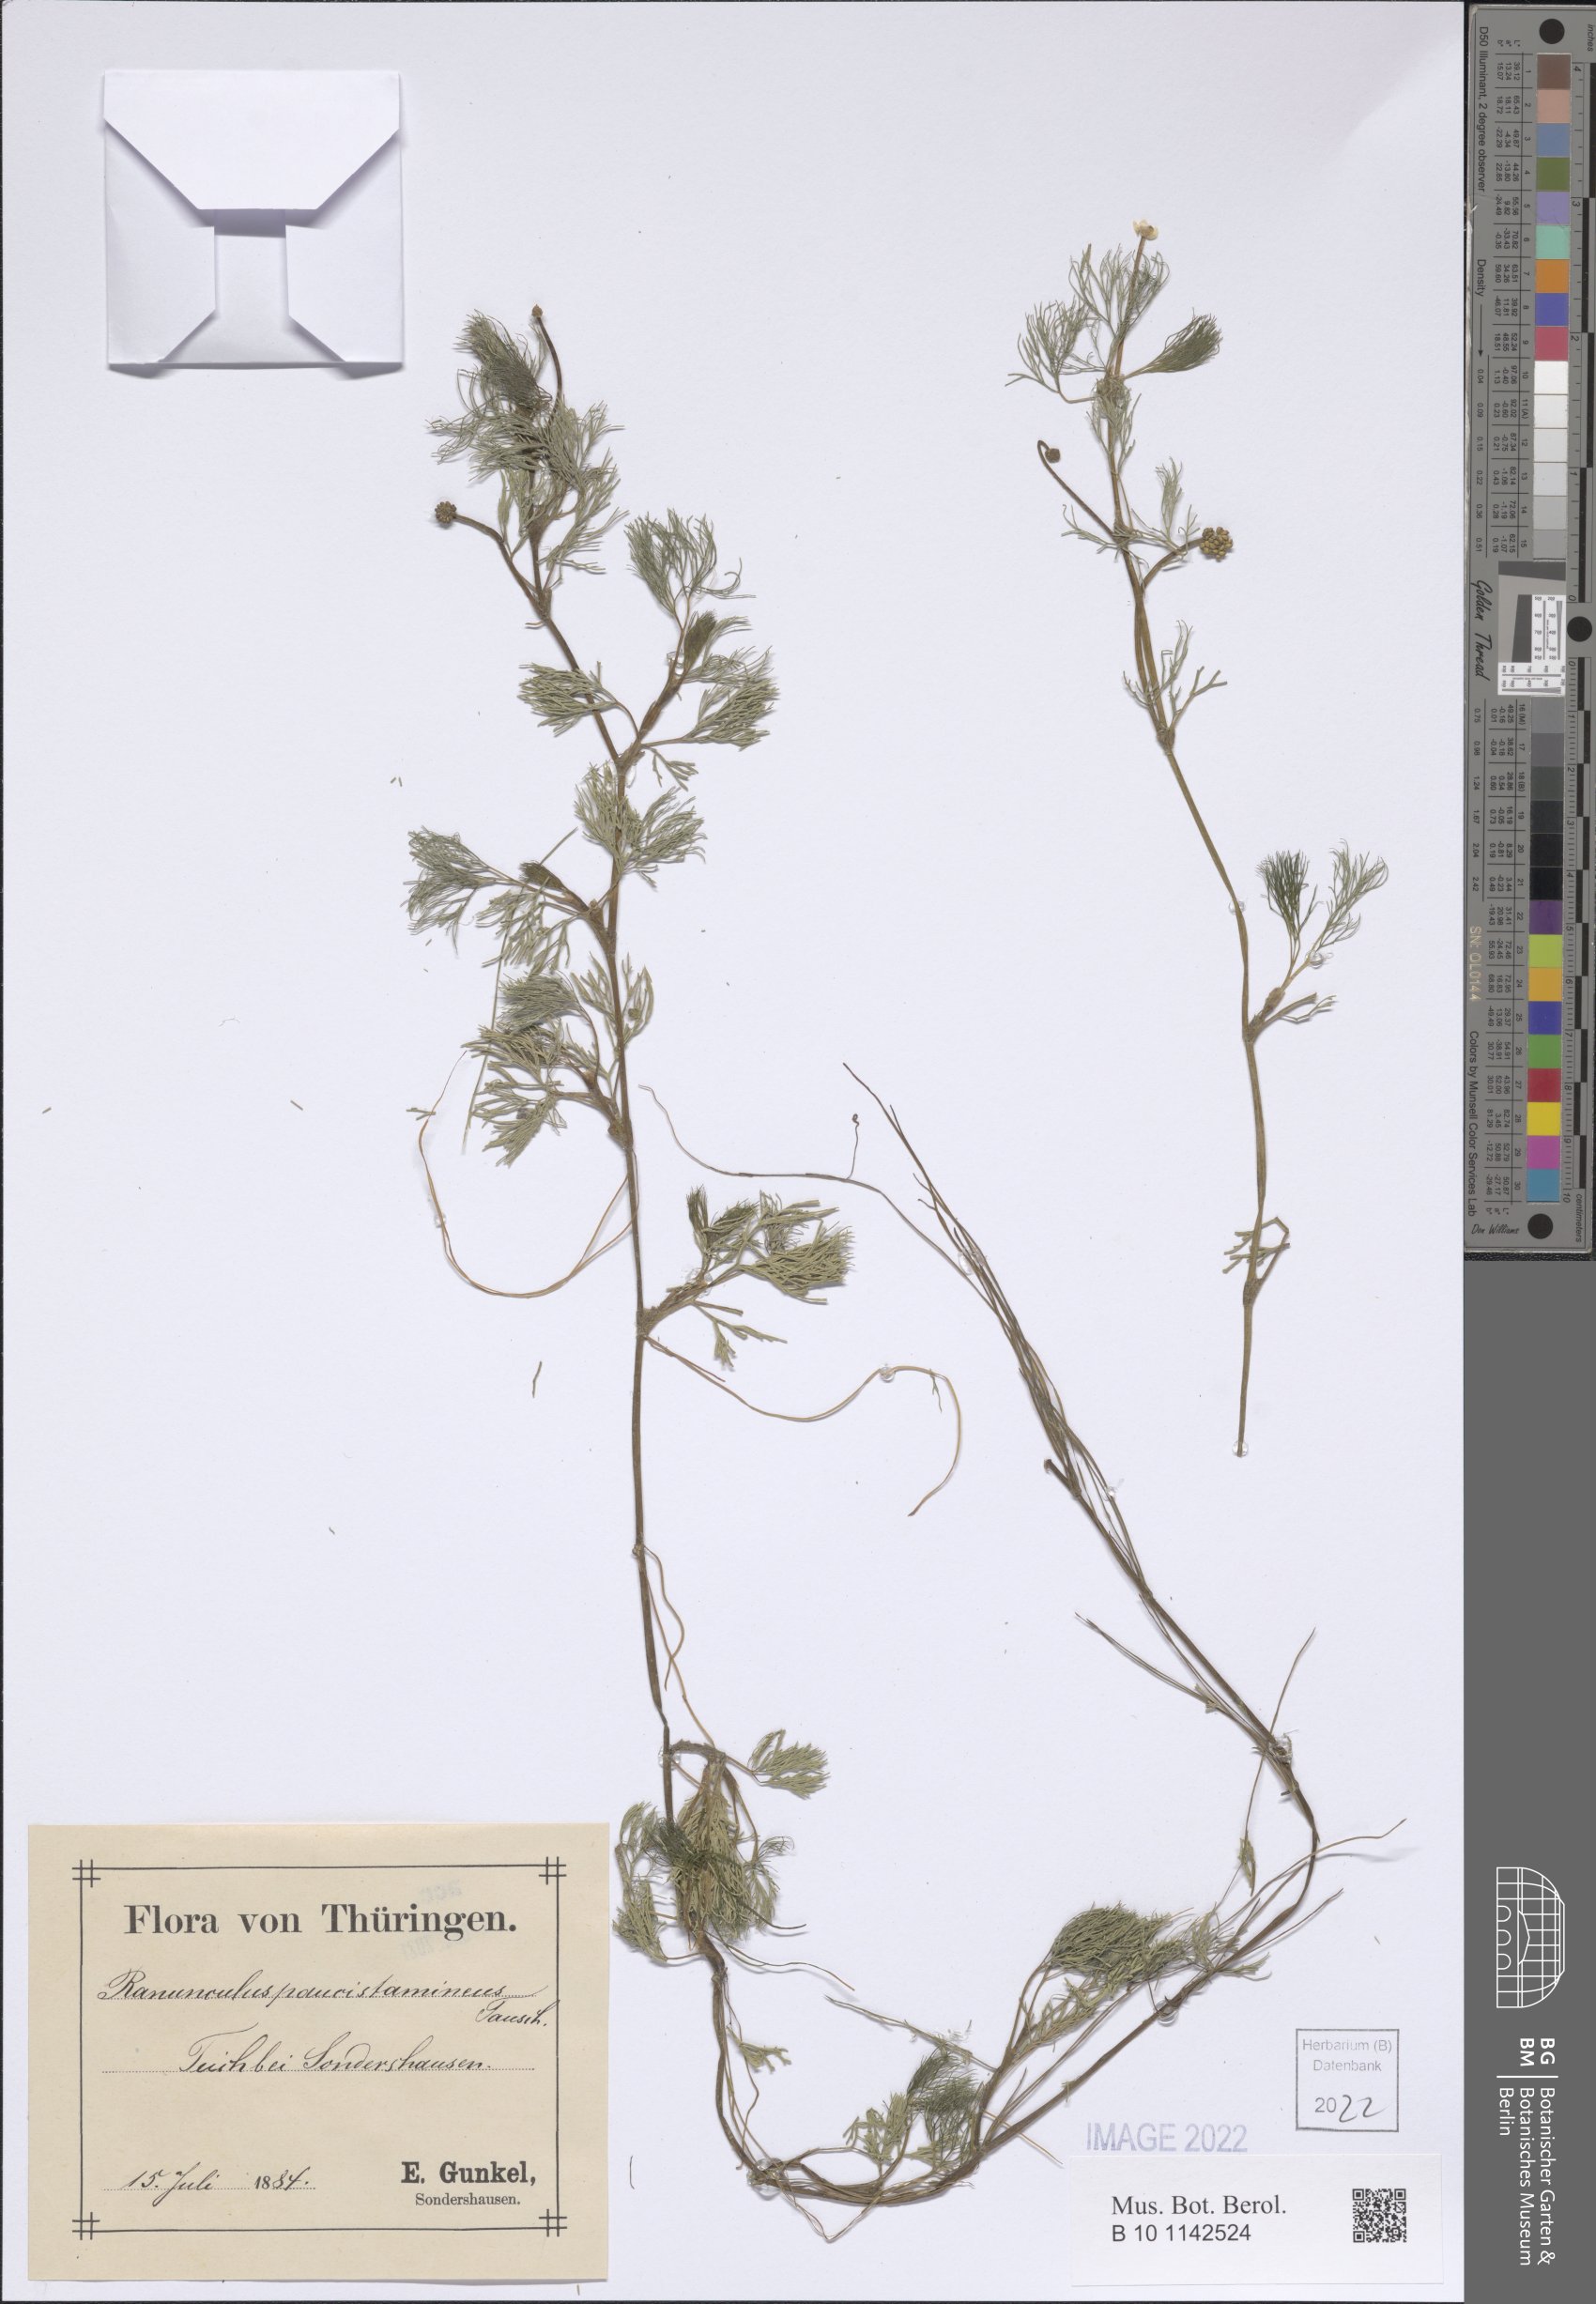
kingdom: Plantae
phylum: Tracheophyta
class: Magnoliopsida
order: Ranunculales
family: Ranunculaceae
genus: Ranunculus
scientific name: Ranunculus trichophyllus
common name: Thread-leaved water-crowfoot
